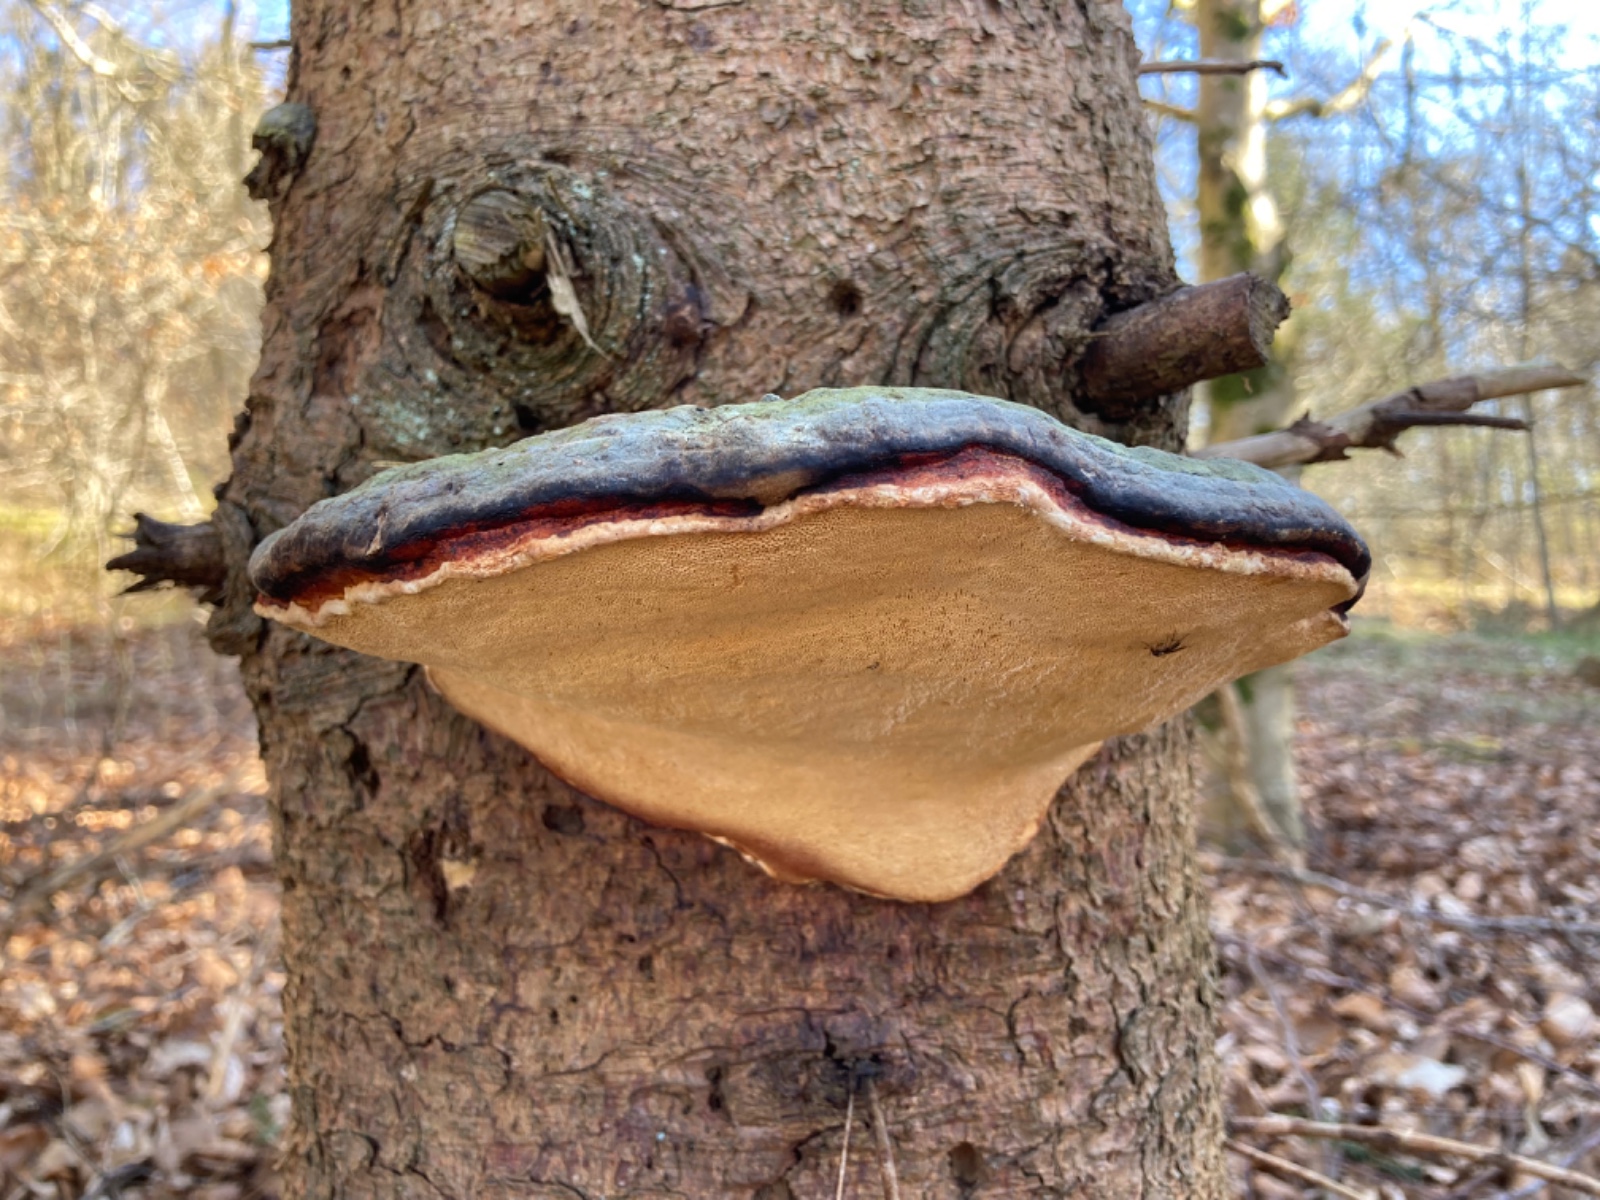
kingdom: Fungi
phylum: Basidiomycota
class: Agaricomycetes
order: Polyporales
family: Fomitopsidaceae
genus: Fomitopsis
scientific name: Fomitopsis pinicola
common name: randbæltet hovporesvamp
